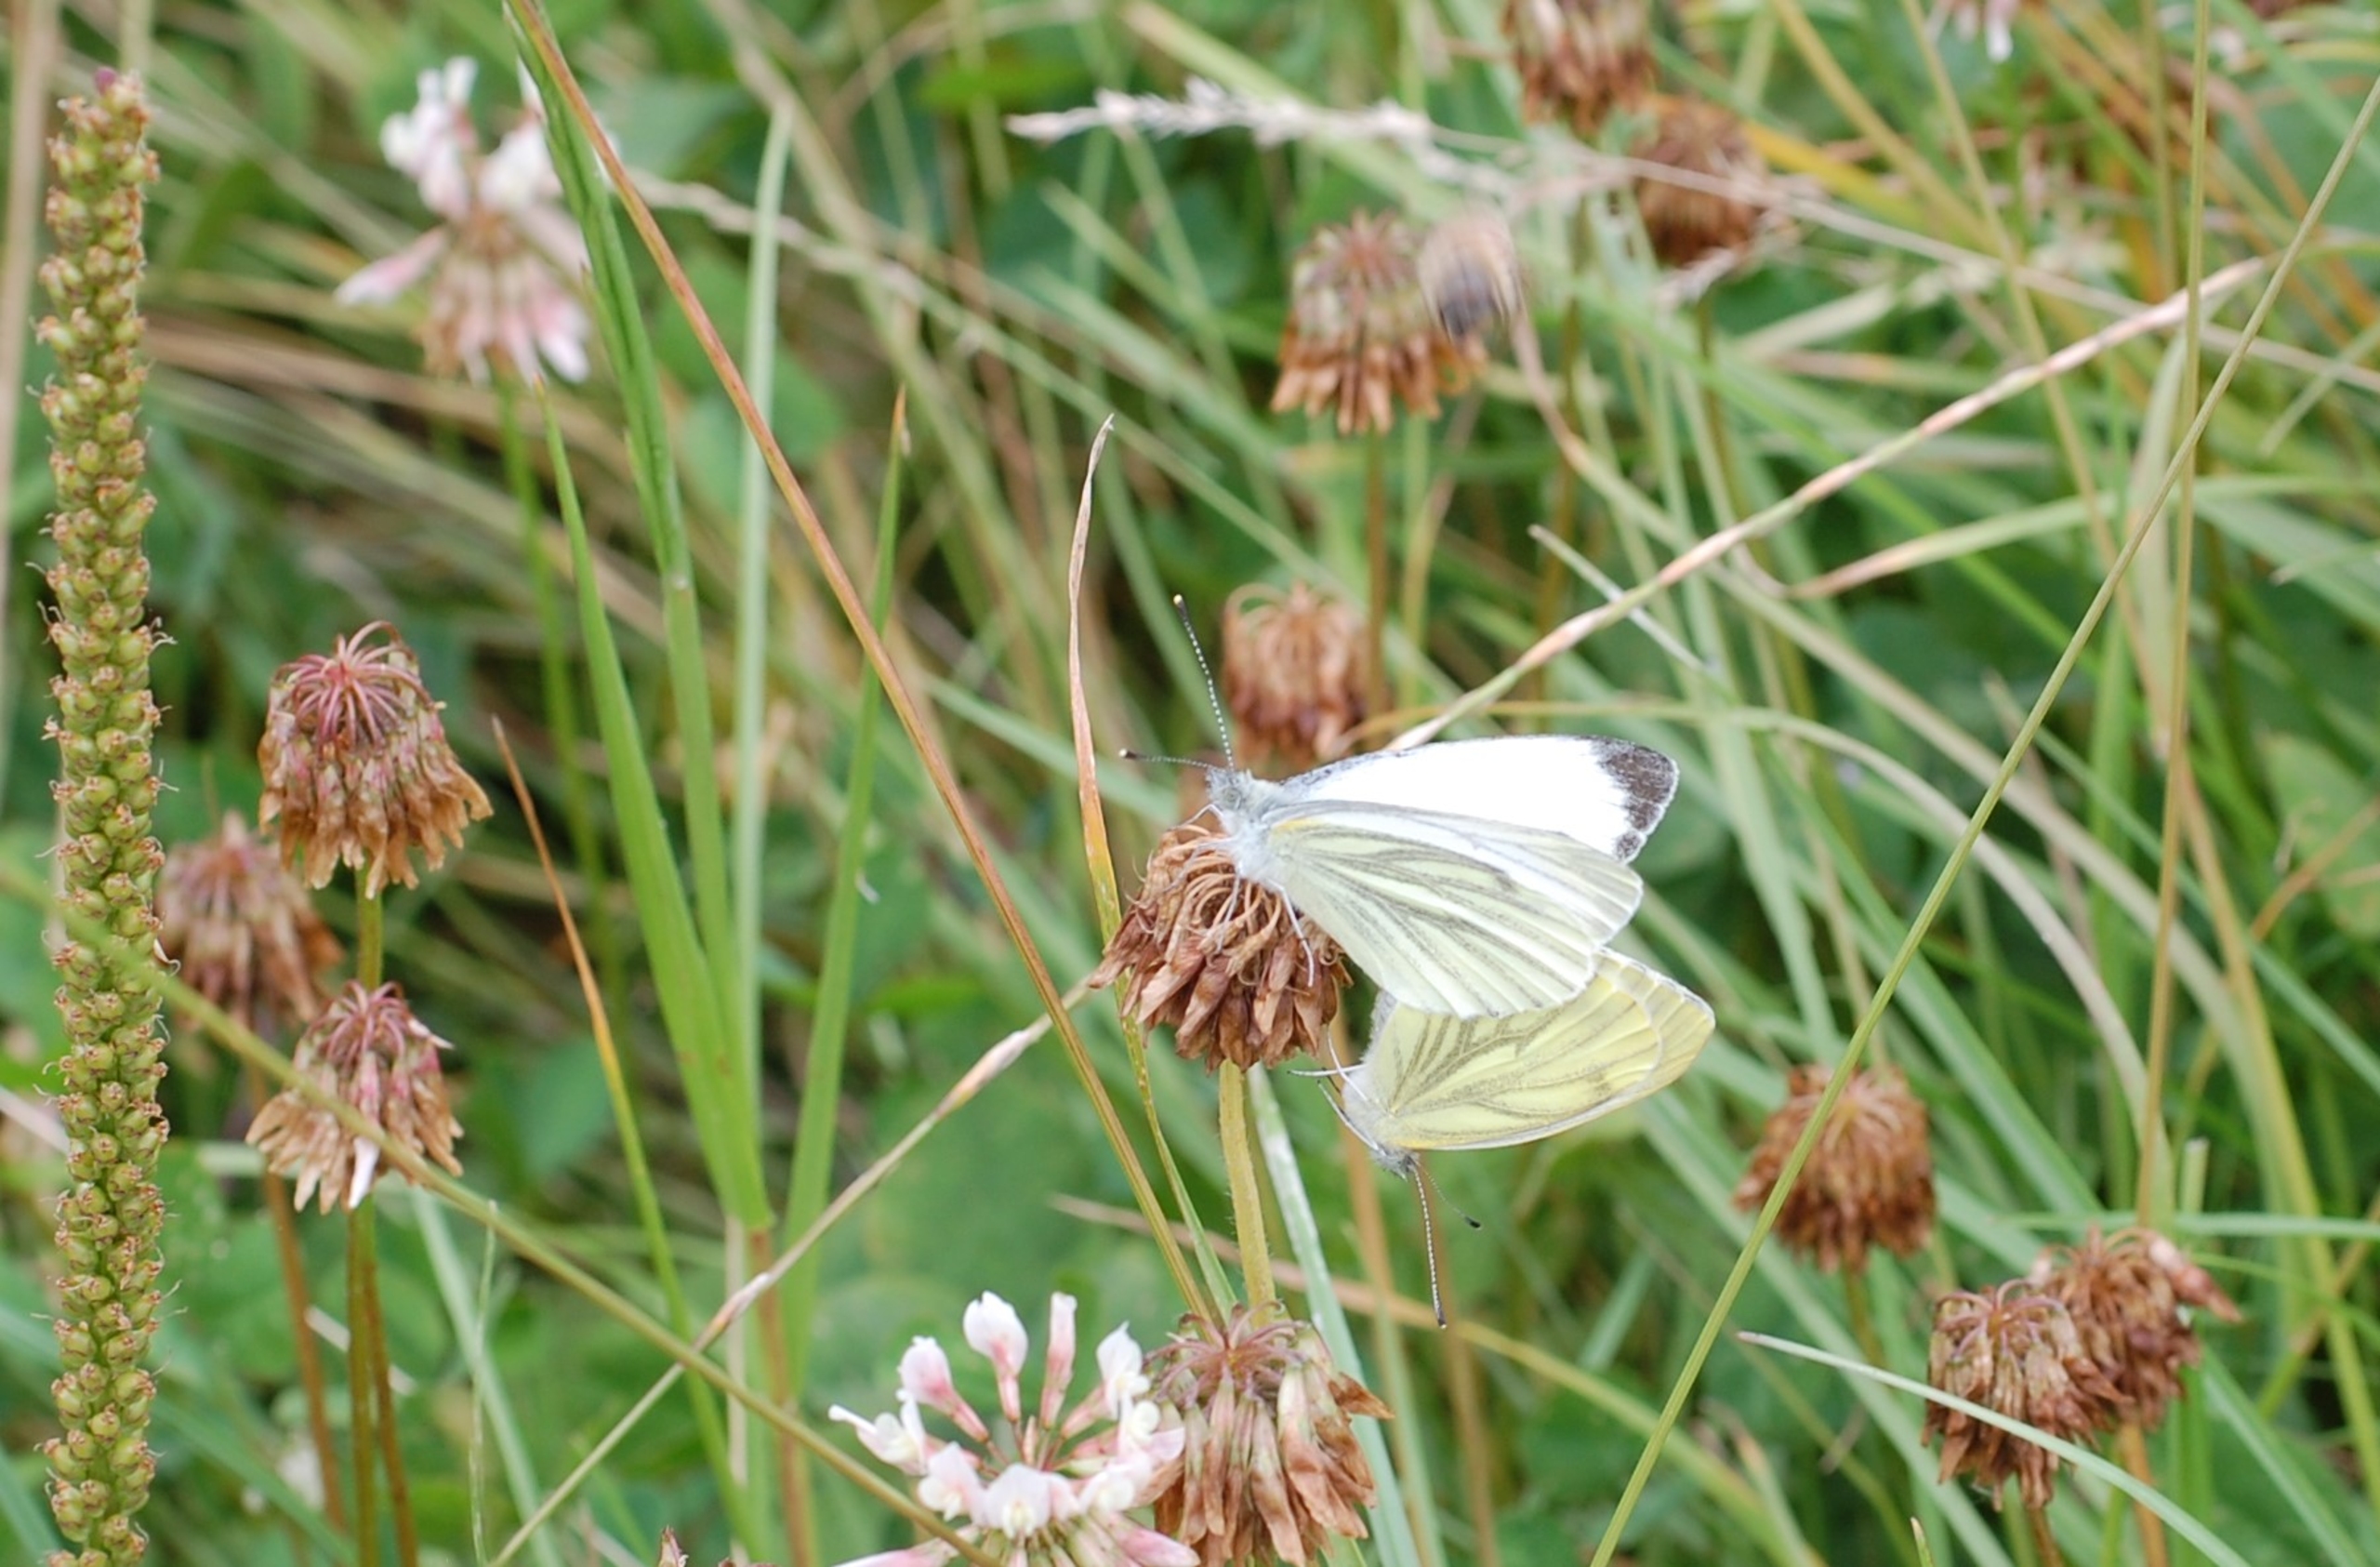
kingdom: Animalia
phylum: Arthropoda
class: Insecta
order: Lepidoptera
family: Pieridae
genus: Pieris
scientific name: Pieris napi
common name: Grønåret kålsommerfugl
